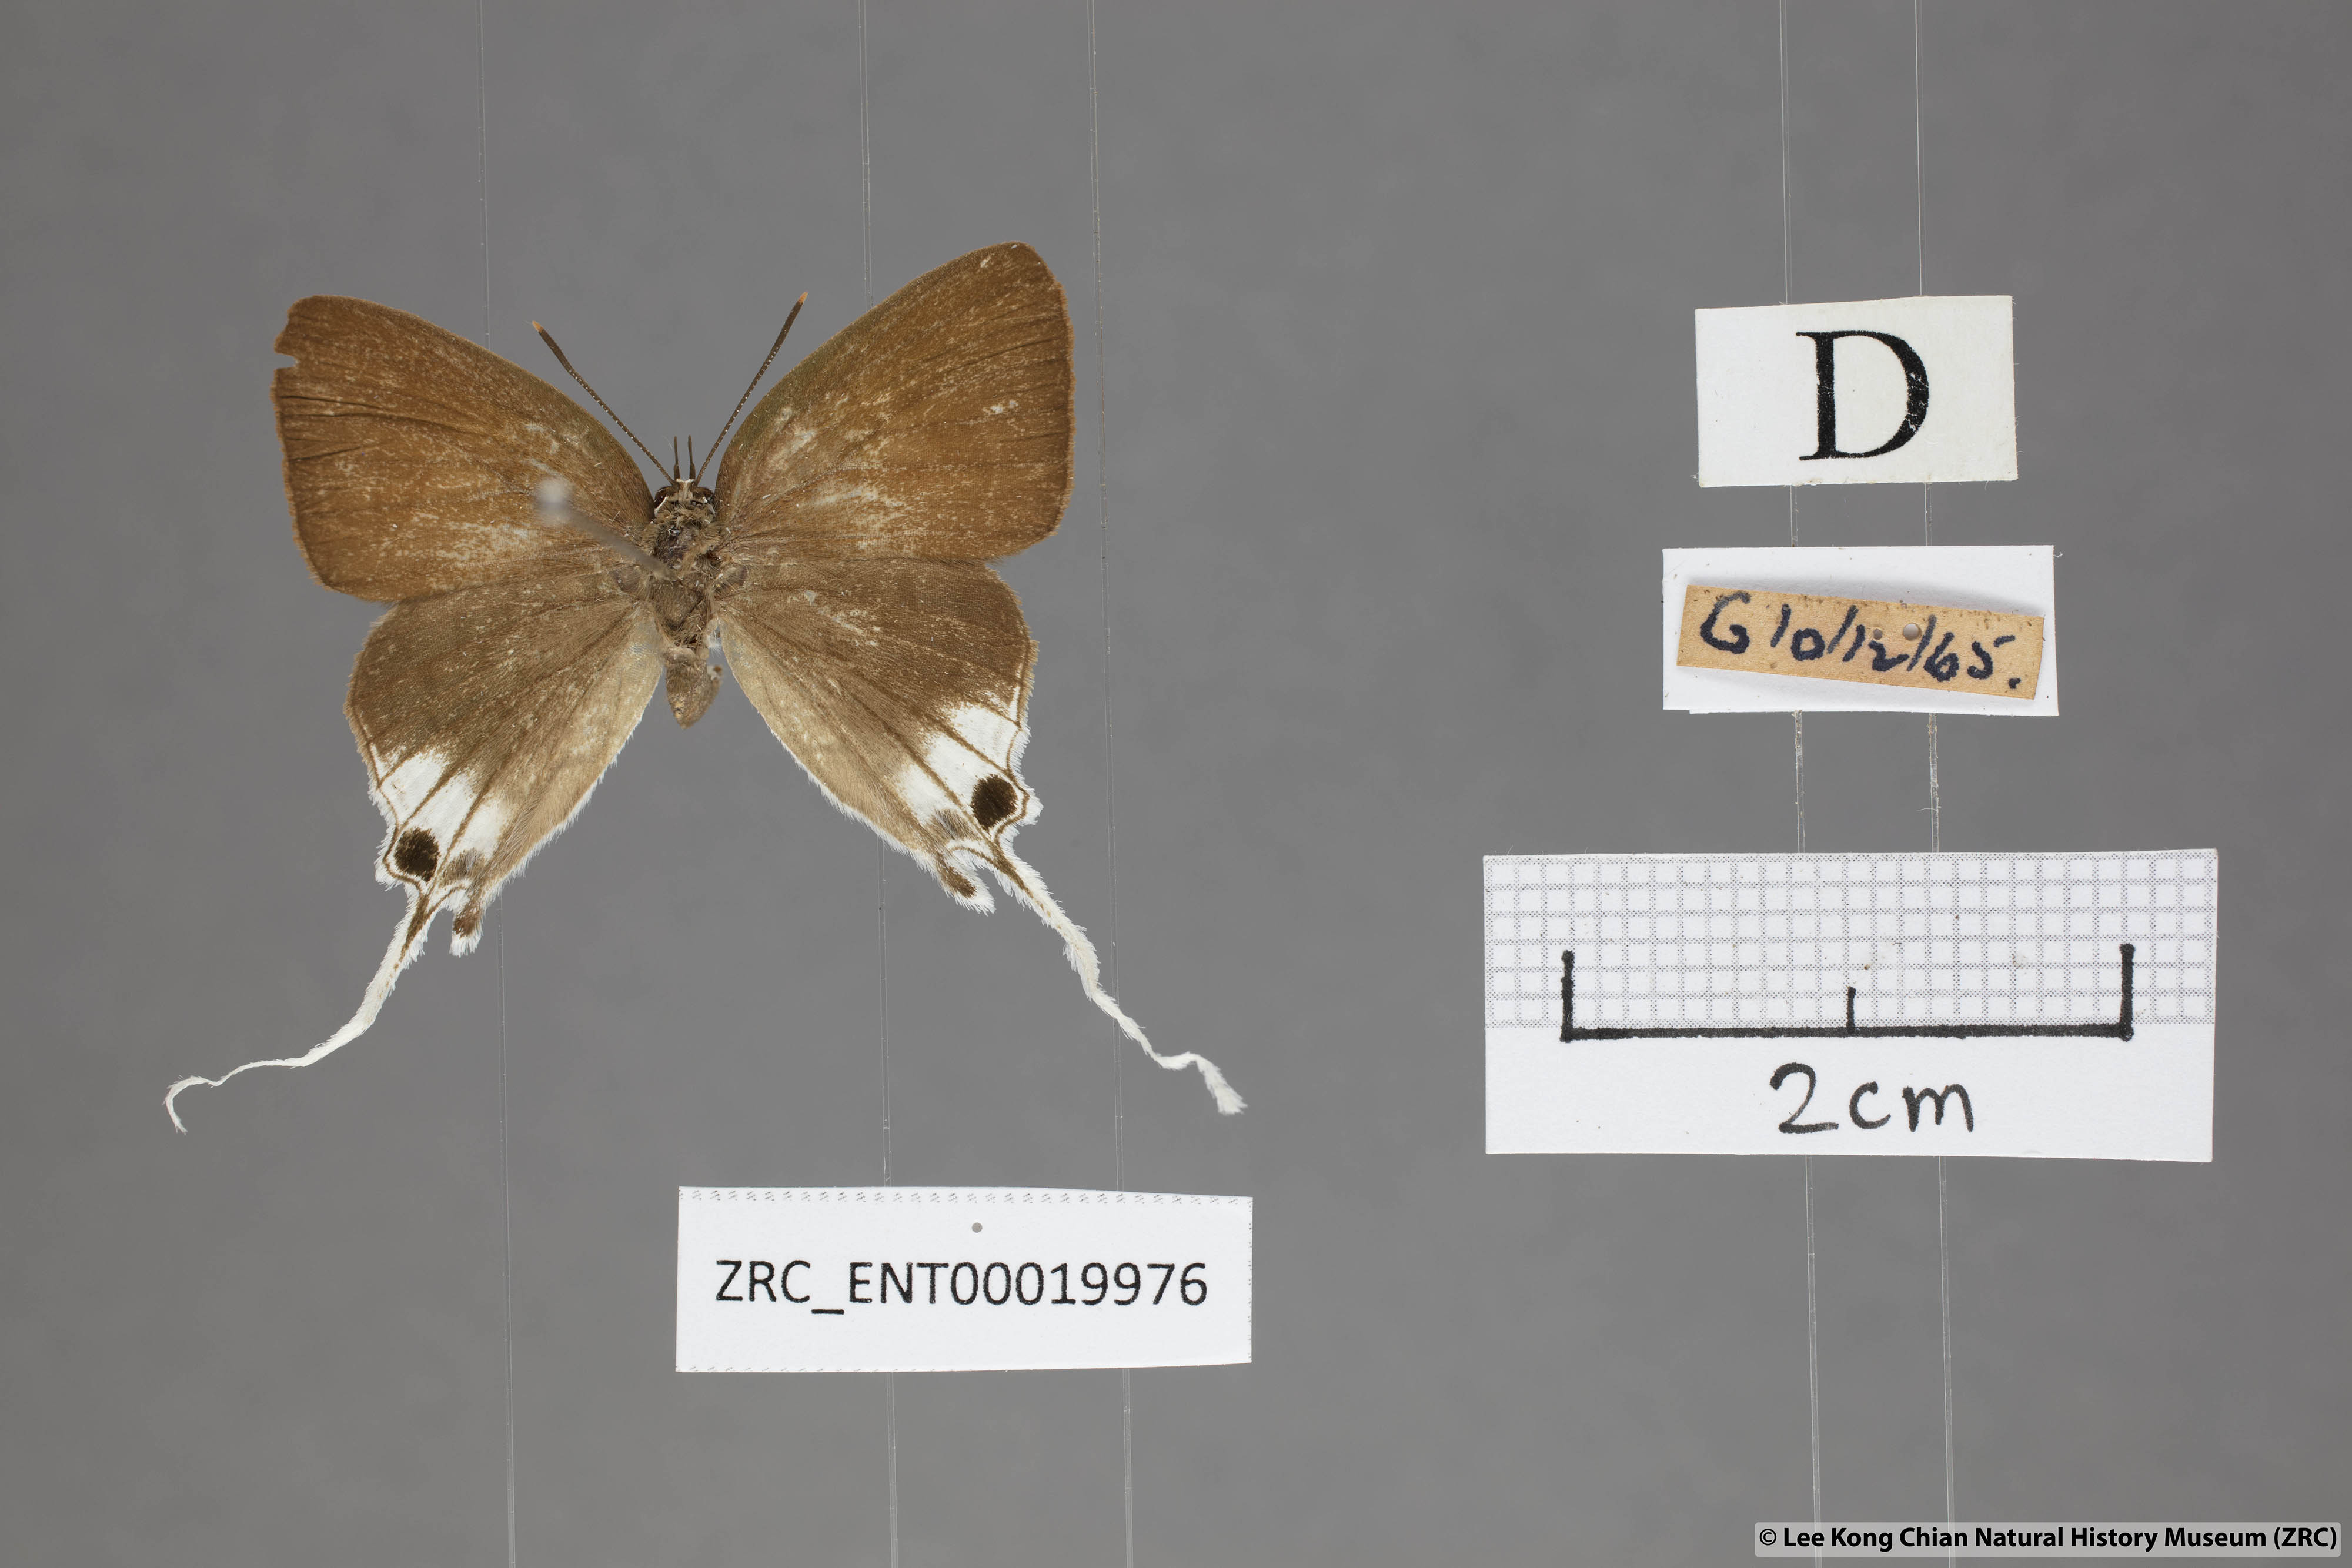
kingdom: Animalia
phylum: Arthropoda
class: Insecta
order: Lepidoptera
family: Lycaenidae
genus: Bindahara
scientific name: Bindahara phocides
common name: Sword-tailed flash
